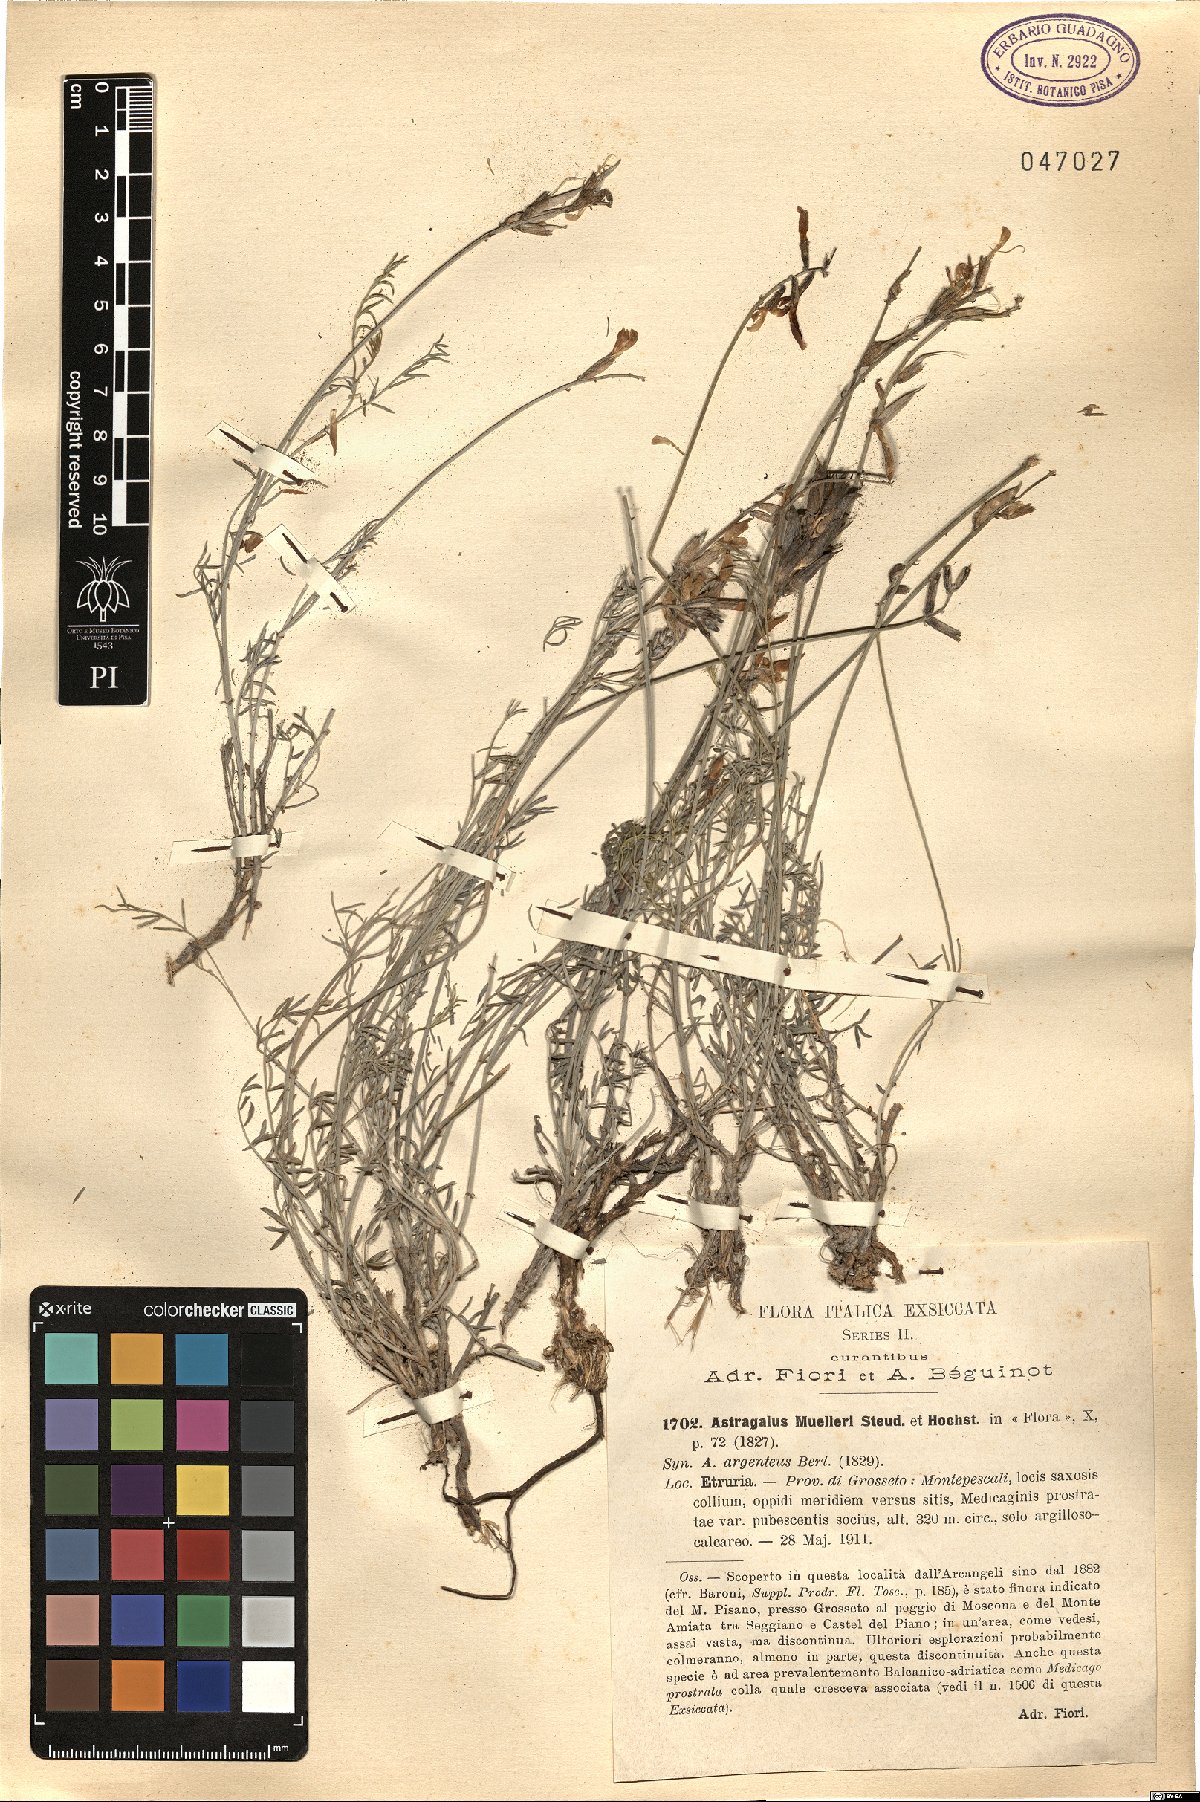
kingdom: Plantae
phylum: Tracheophyta
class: Magnoliopsida
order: Fabales
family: Fabaceae
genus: Astragalus
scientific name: Astragalus muelleri
